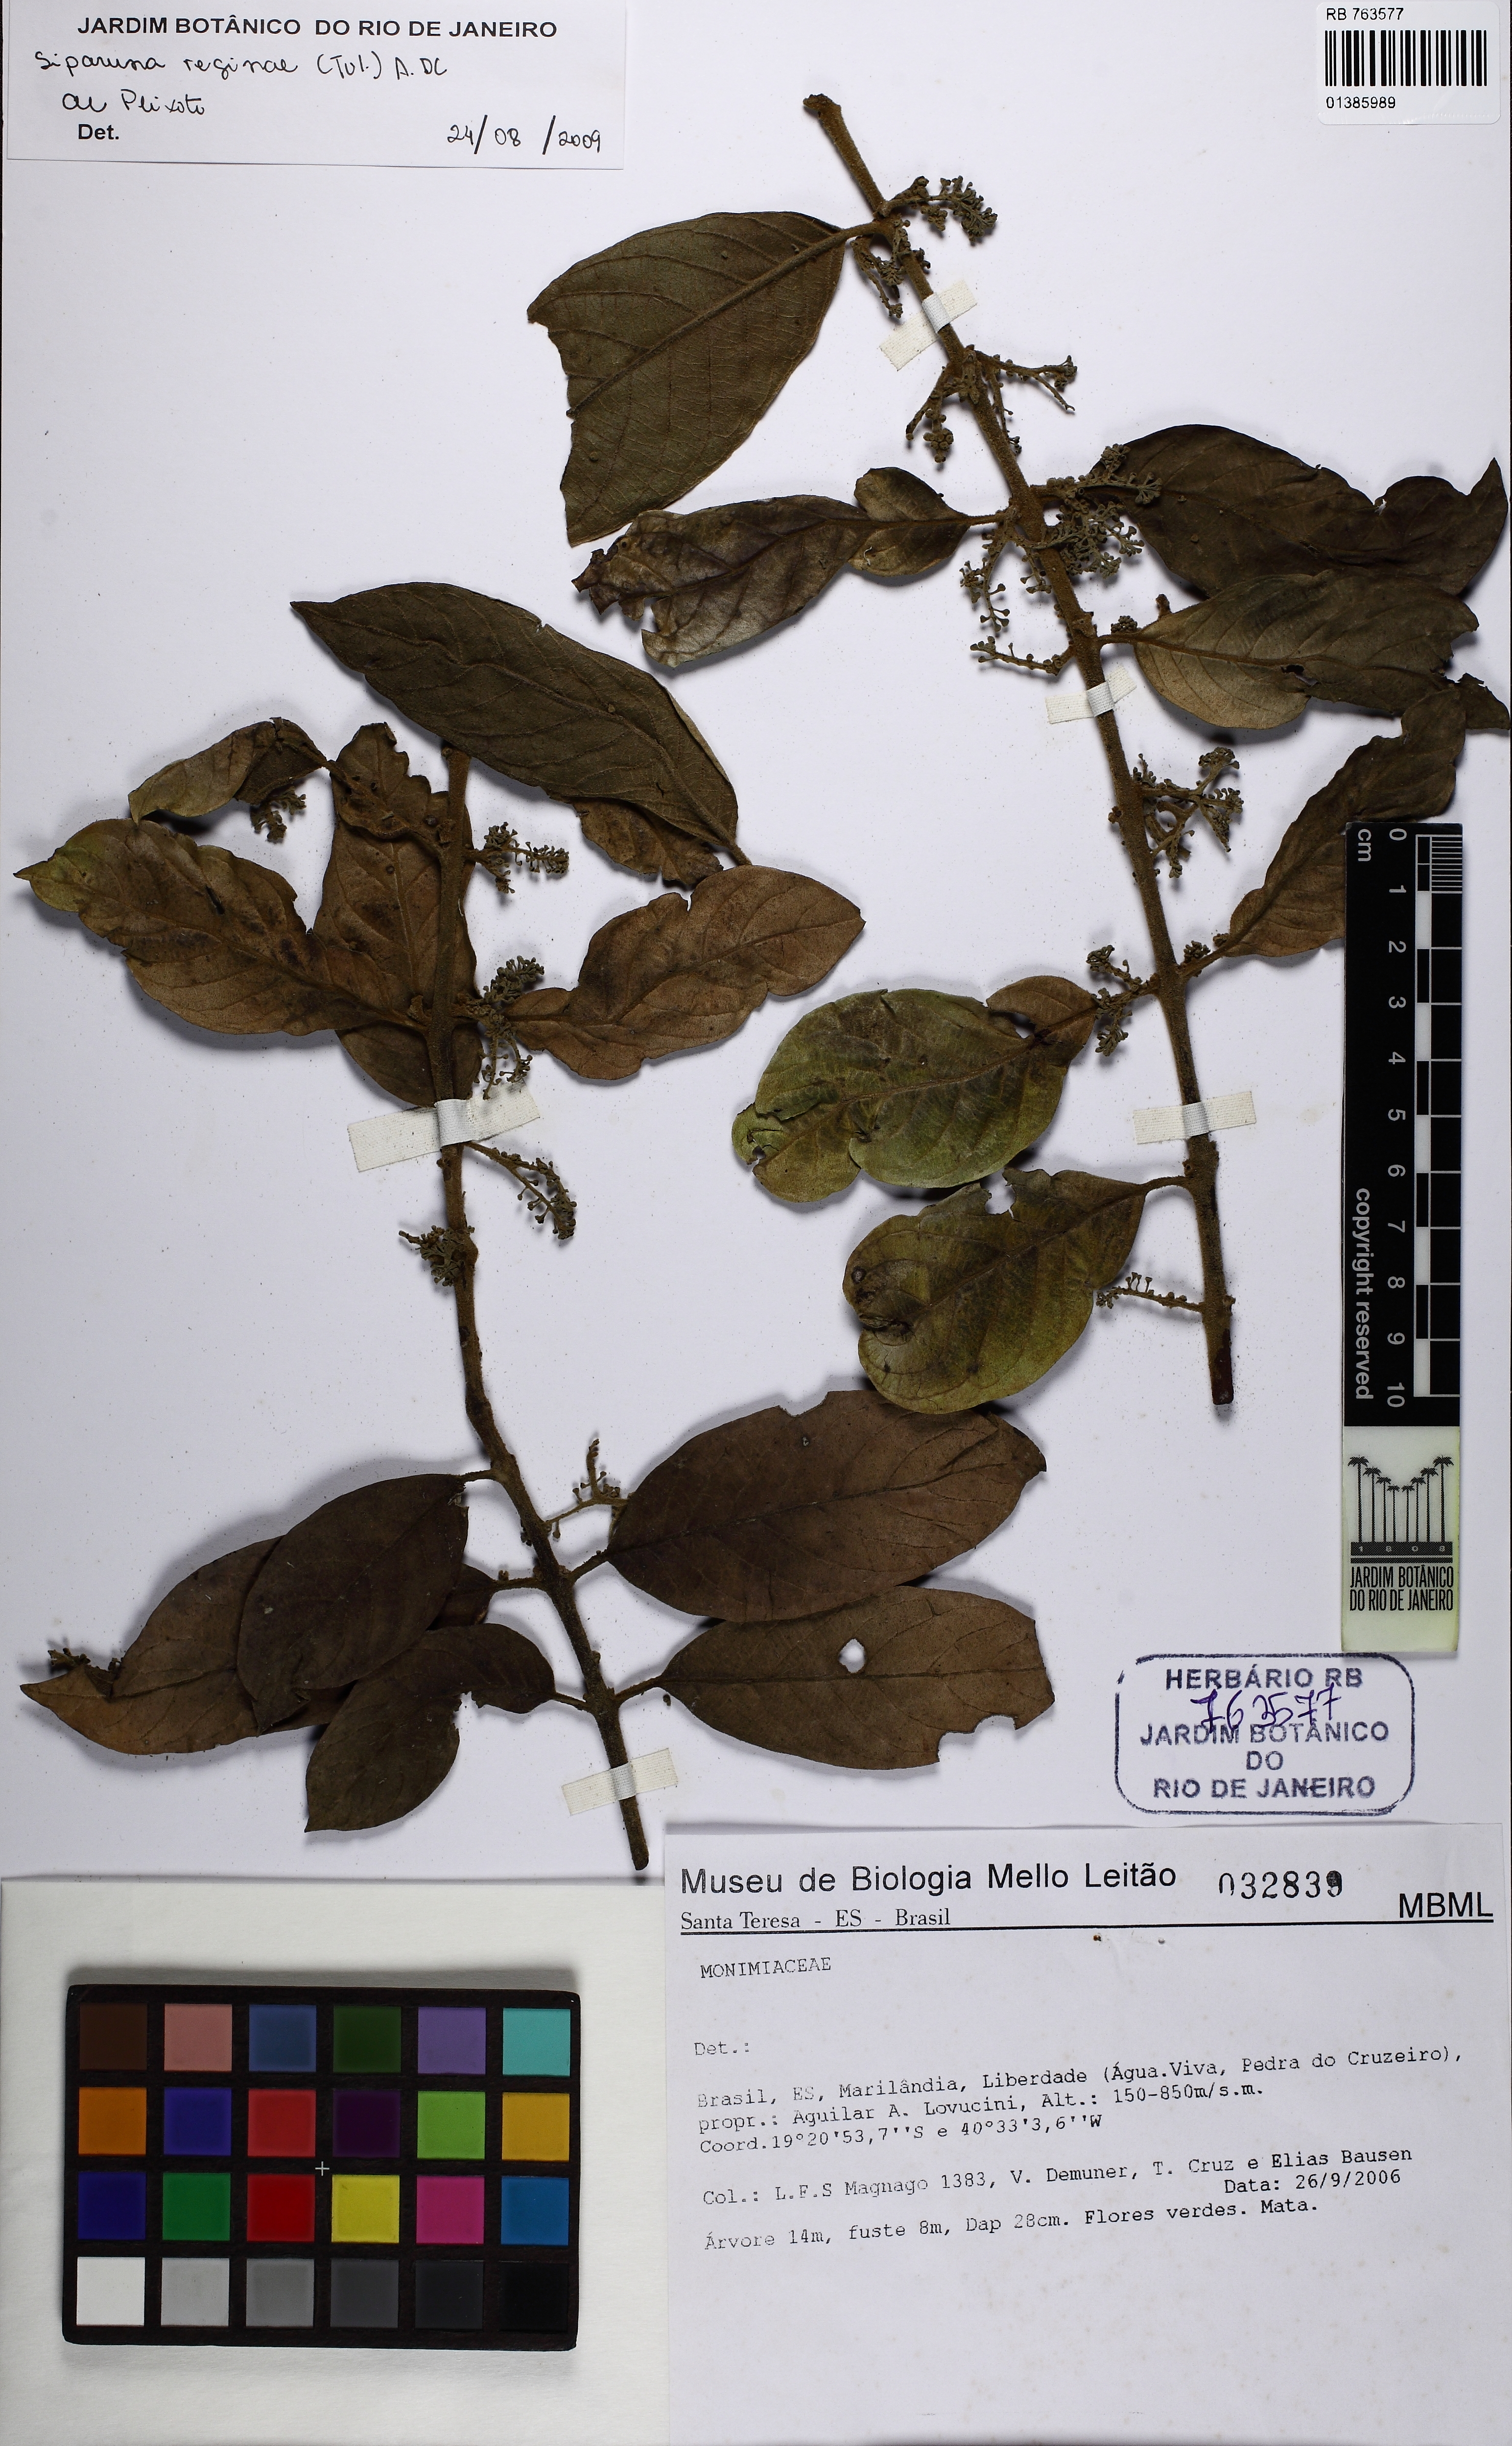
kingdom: Plantae
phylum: Tracheophyta
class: Magnoliopsida
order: Laurales
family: Siparunaceae
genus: Siparuna
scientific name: Siparuna reginae
